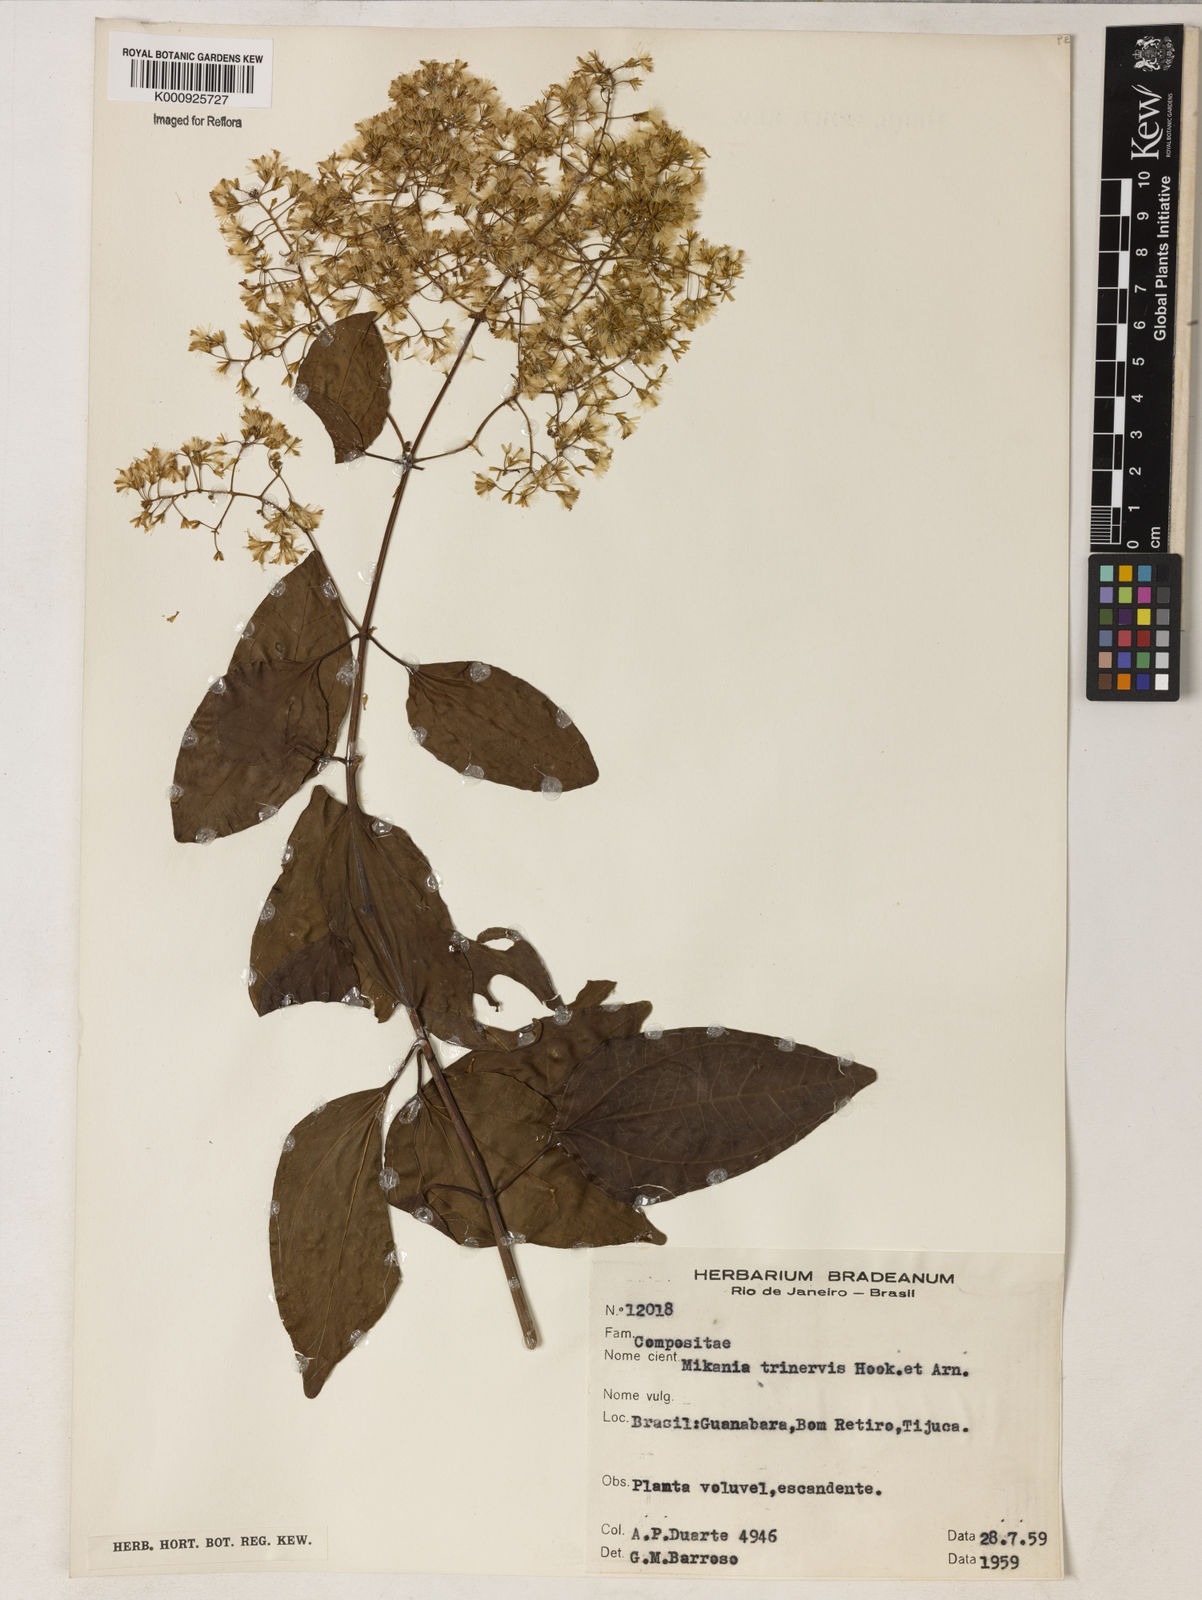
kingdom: Plantae
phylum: Tracheophyta
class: Magnoliopsida
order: Asterales
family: Asteraceae
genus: Mikania
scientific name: Mikania trinervis
